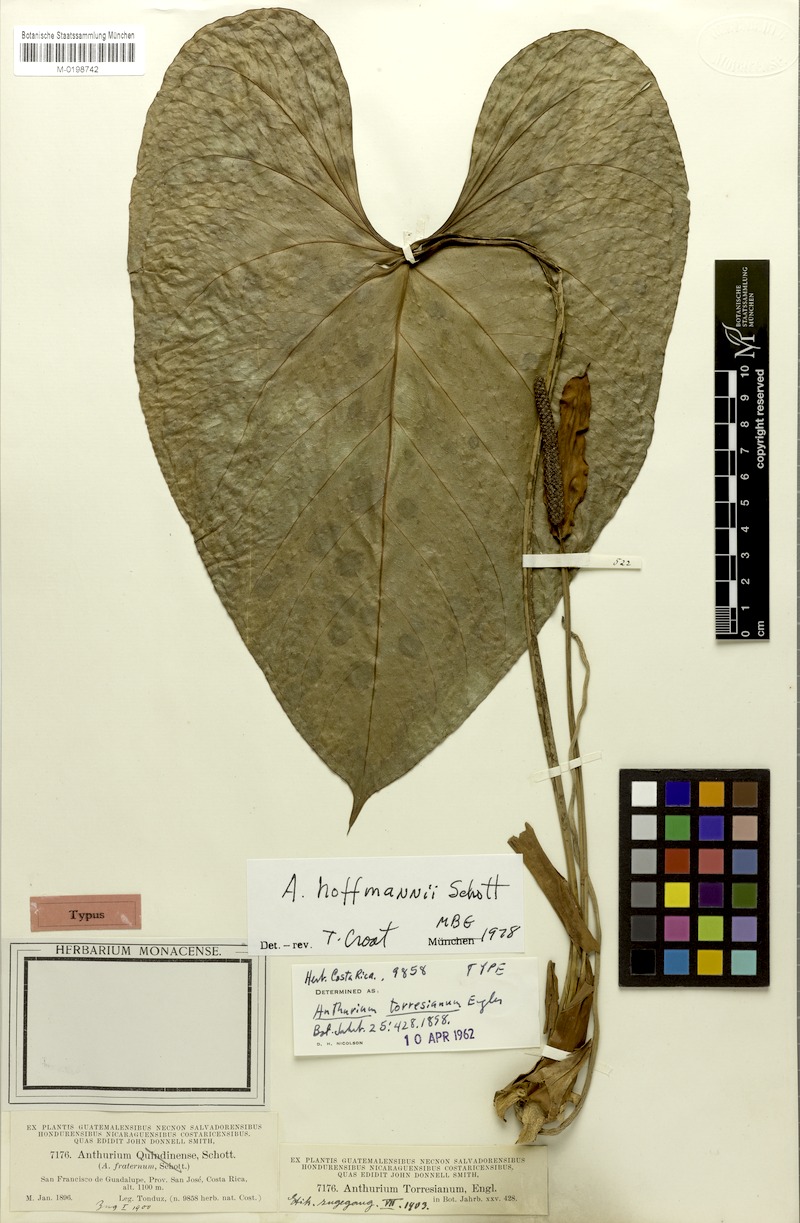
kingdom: Plantae
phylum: Tracheophyta
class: Liliopsida
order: Alismatales
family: Araceae
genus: Anthurium
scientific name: Anthurium hoffmannii
